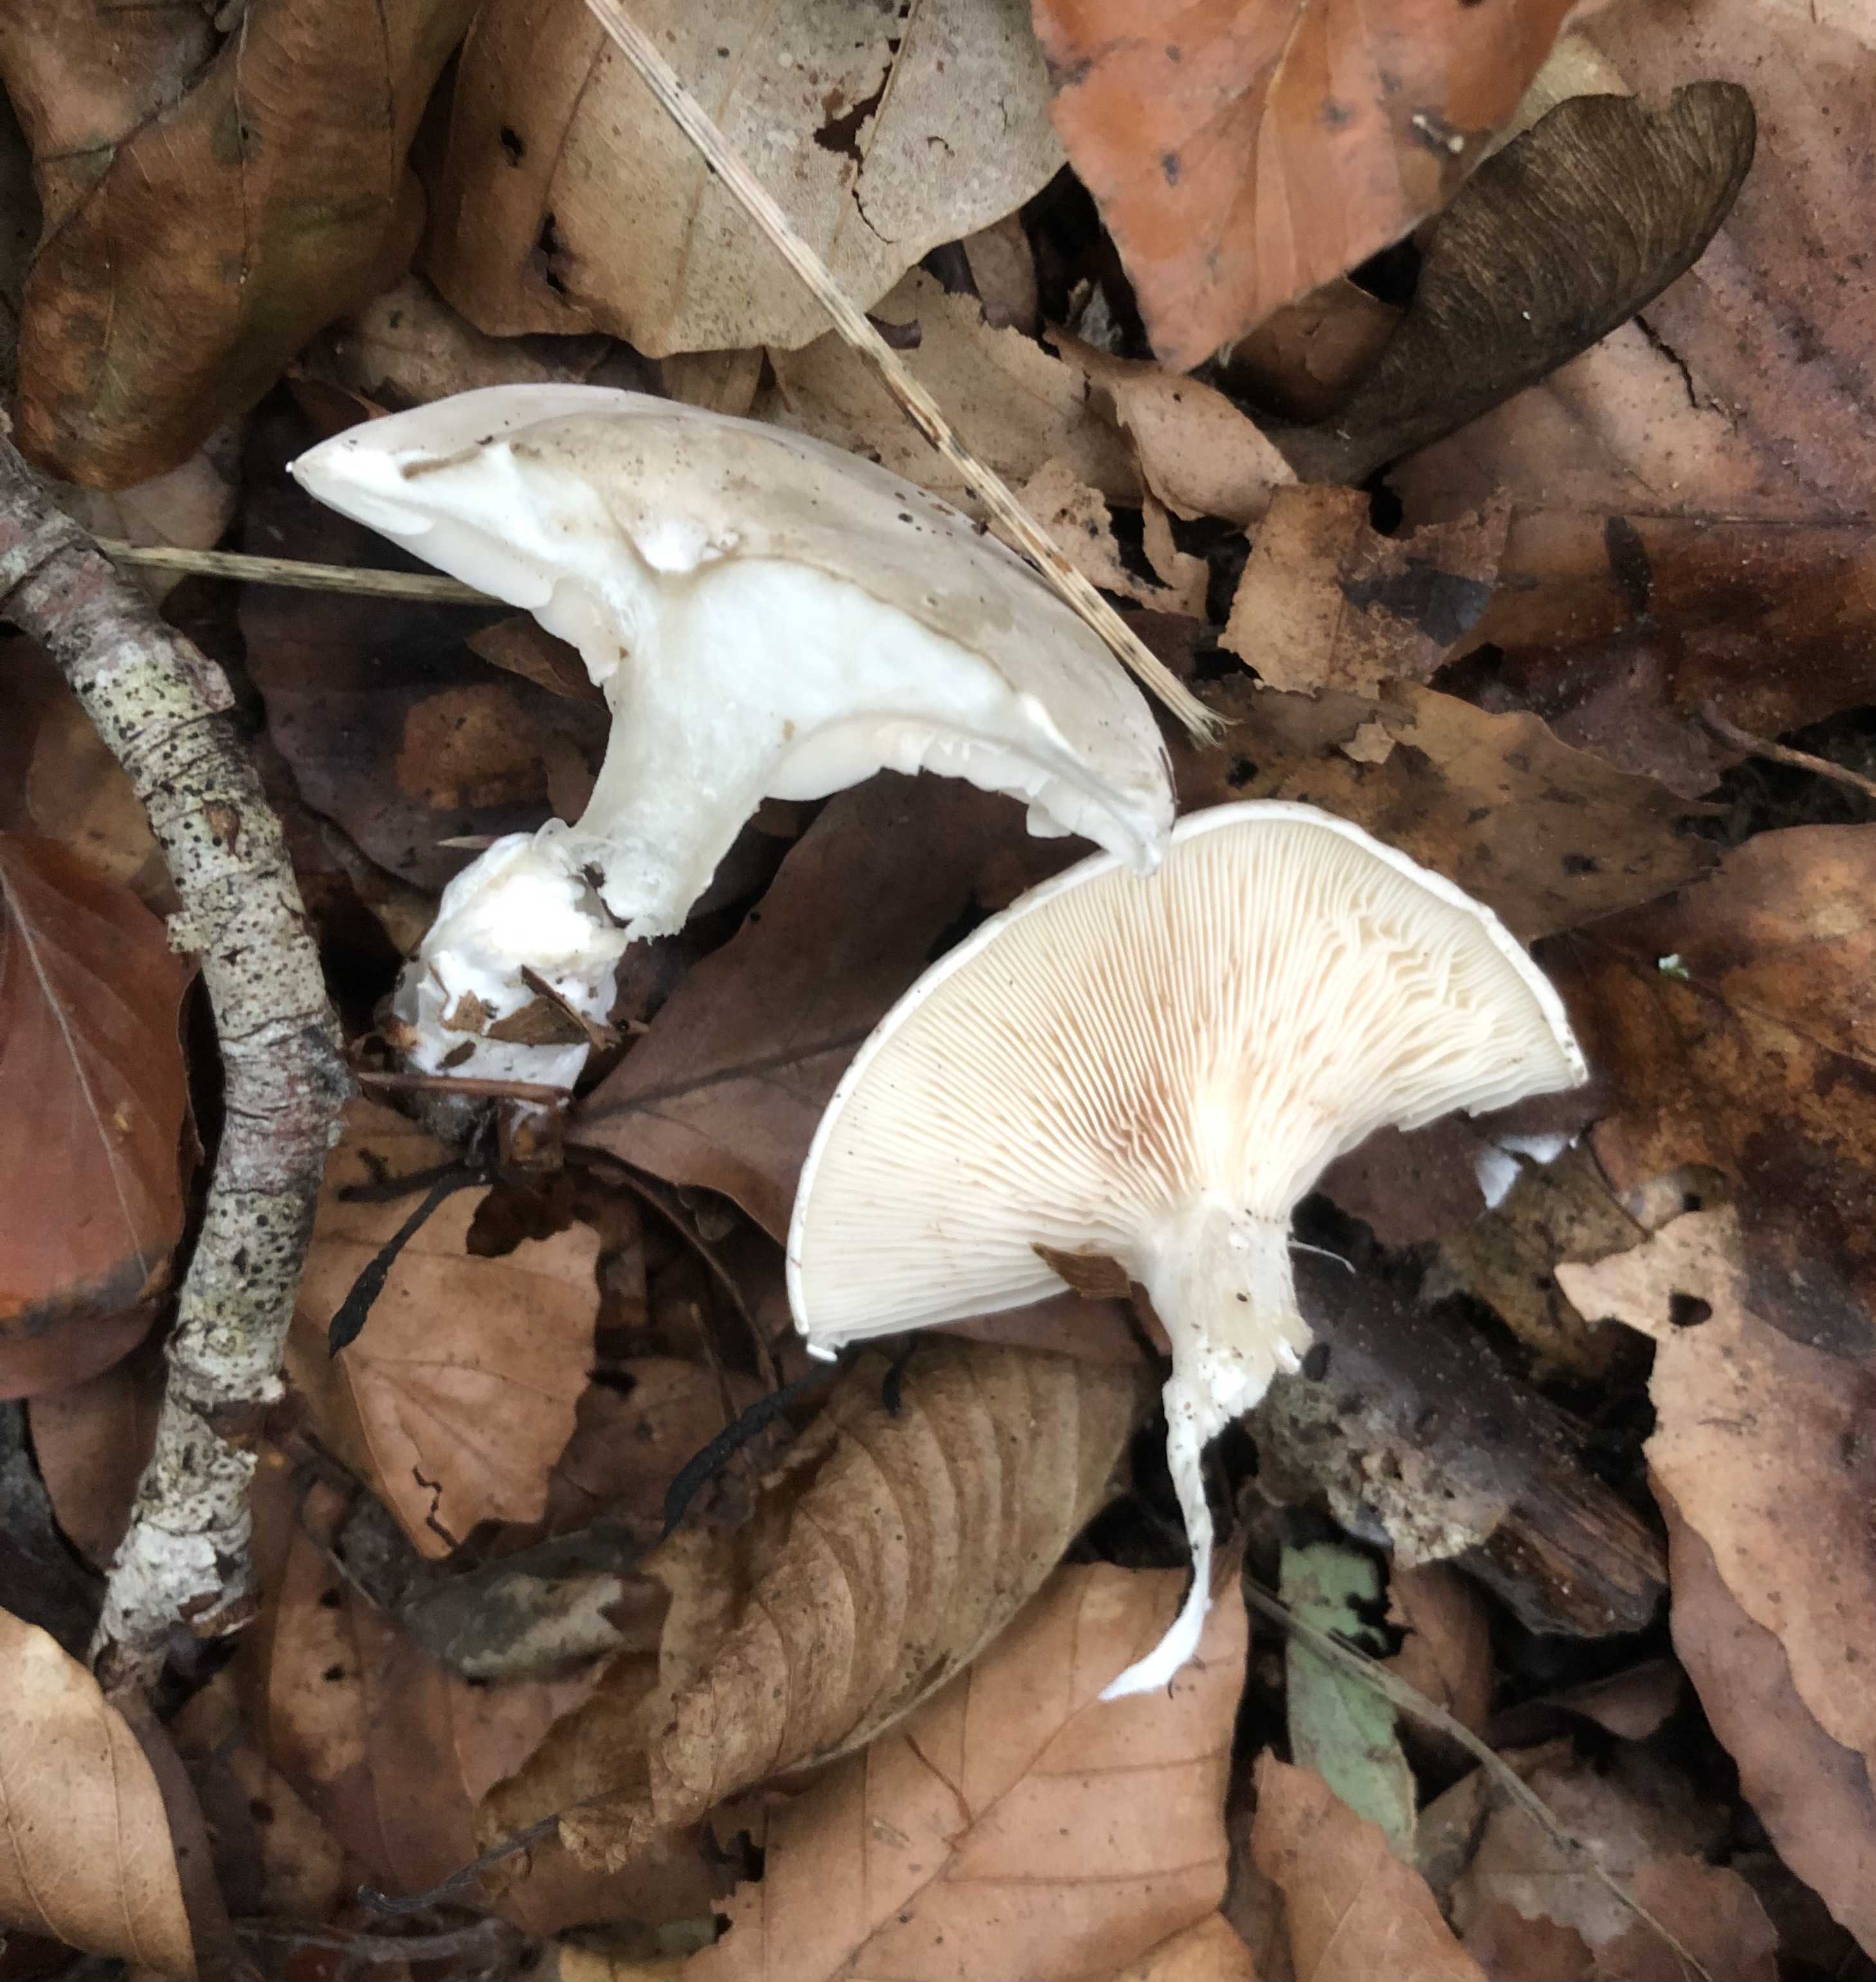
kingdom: Fungi
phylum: Basidiomycota
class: Agaricomycetes
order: Agaricales
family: Entolomataceae
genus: Clitopilus
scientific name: Clitopilus prunulus
